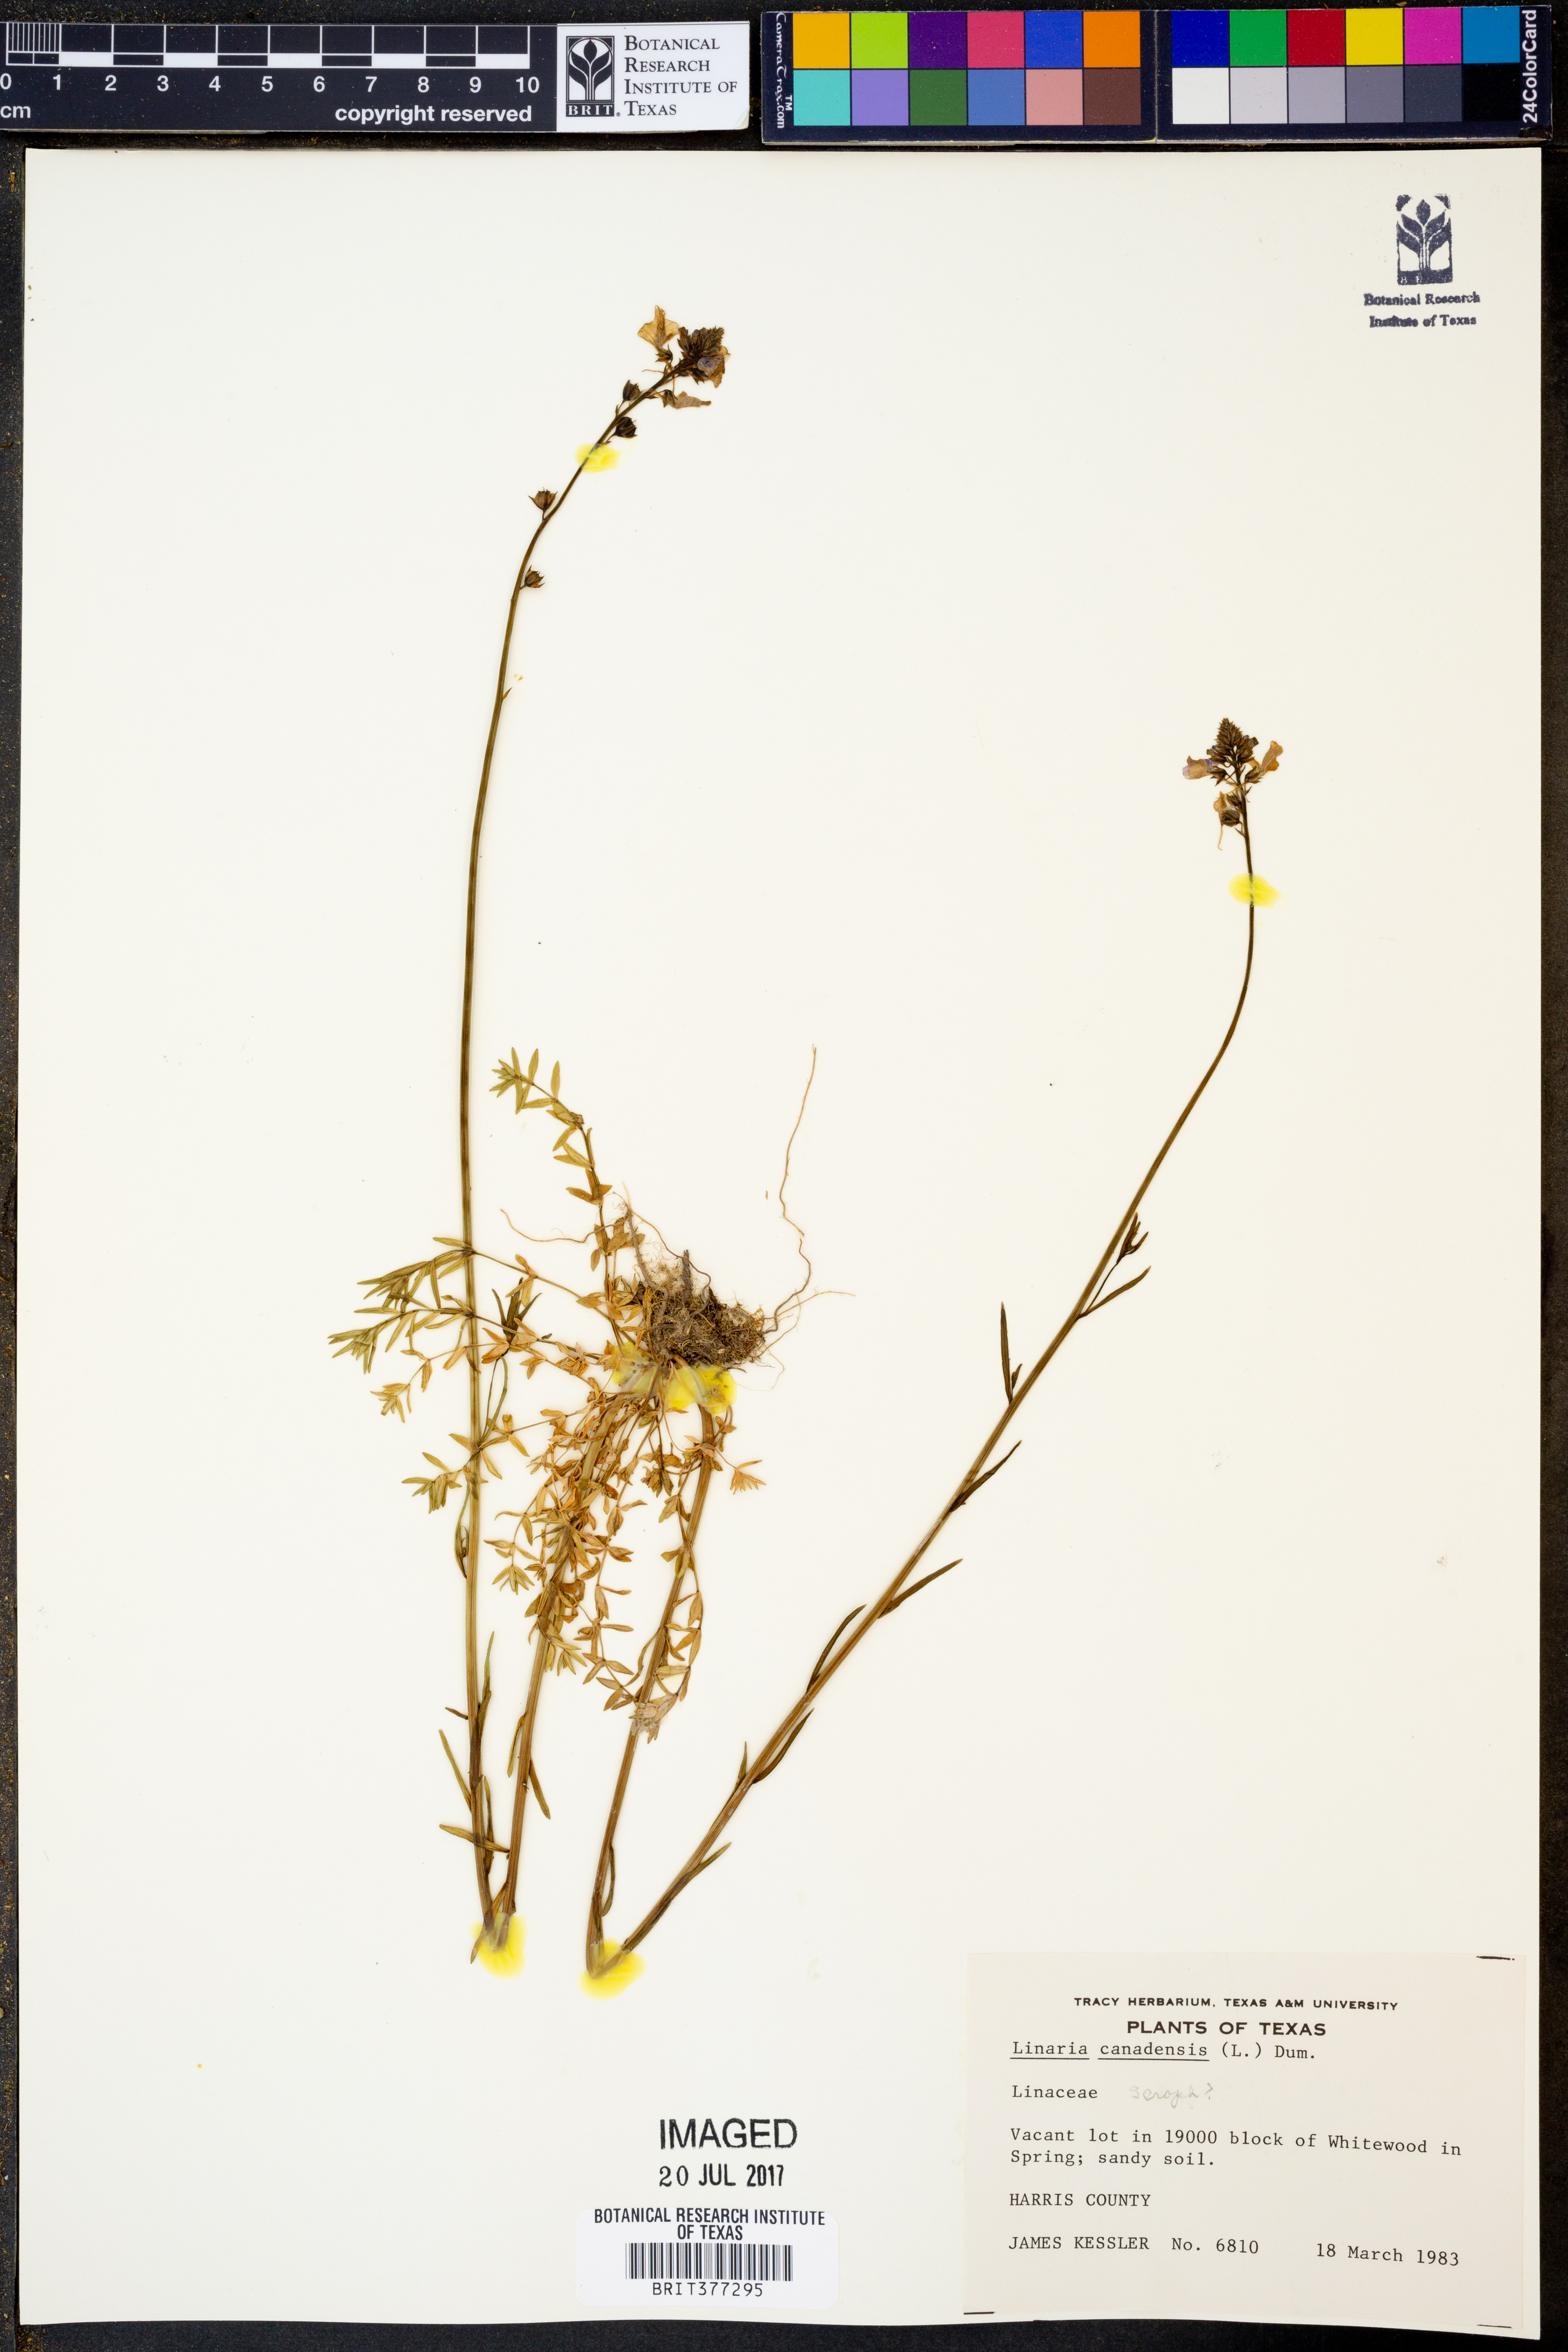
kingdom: Plantae
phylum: Tracheophyta
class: Magnoliopsida
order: Lamiales
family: Plantaginaceae
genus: Nuttallanthus
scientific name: Nuttallanthus canadensis
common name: Blue toadflax
